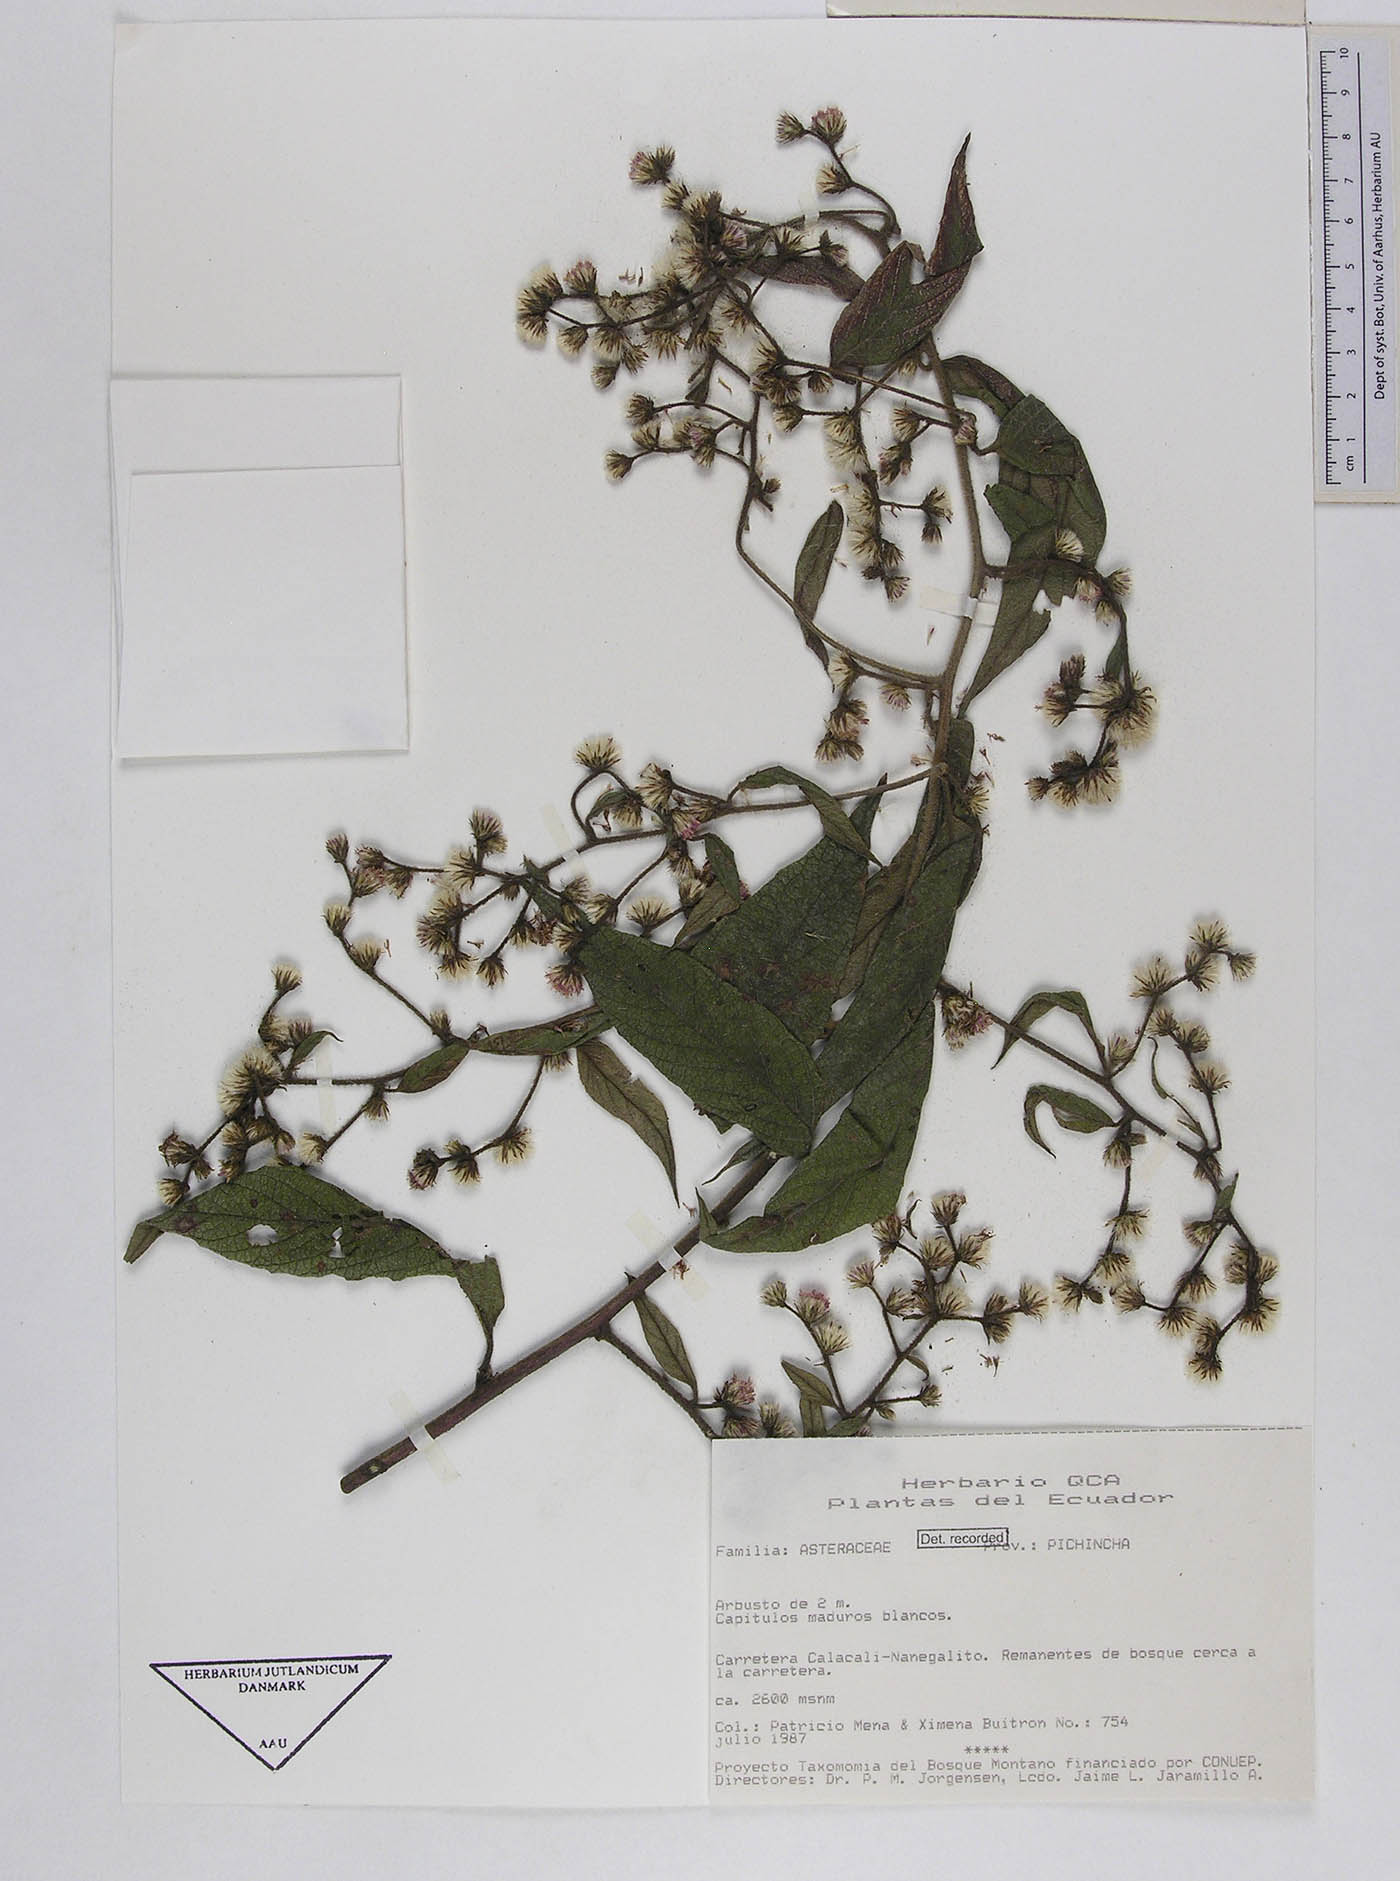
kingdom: Plantae
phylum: Tracheophyta
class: Magnoliopsida
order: Asterales
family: Asteraceae
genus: Lepidaploa
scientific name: Lepidaploa canescens
